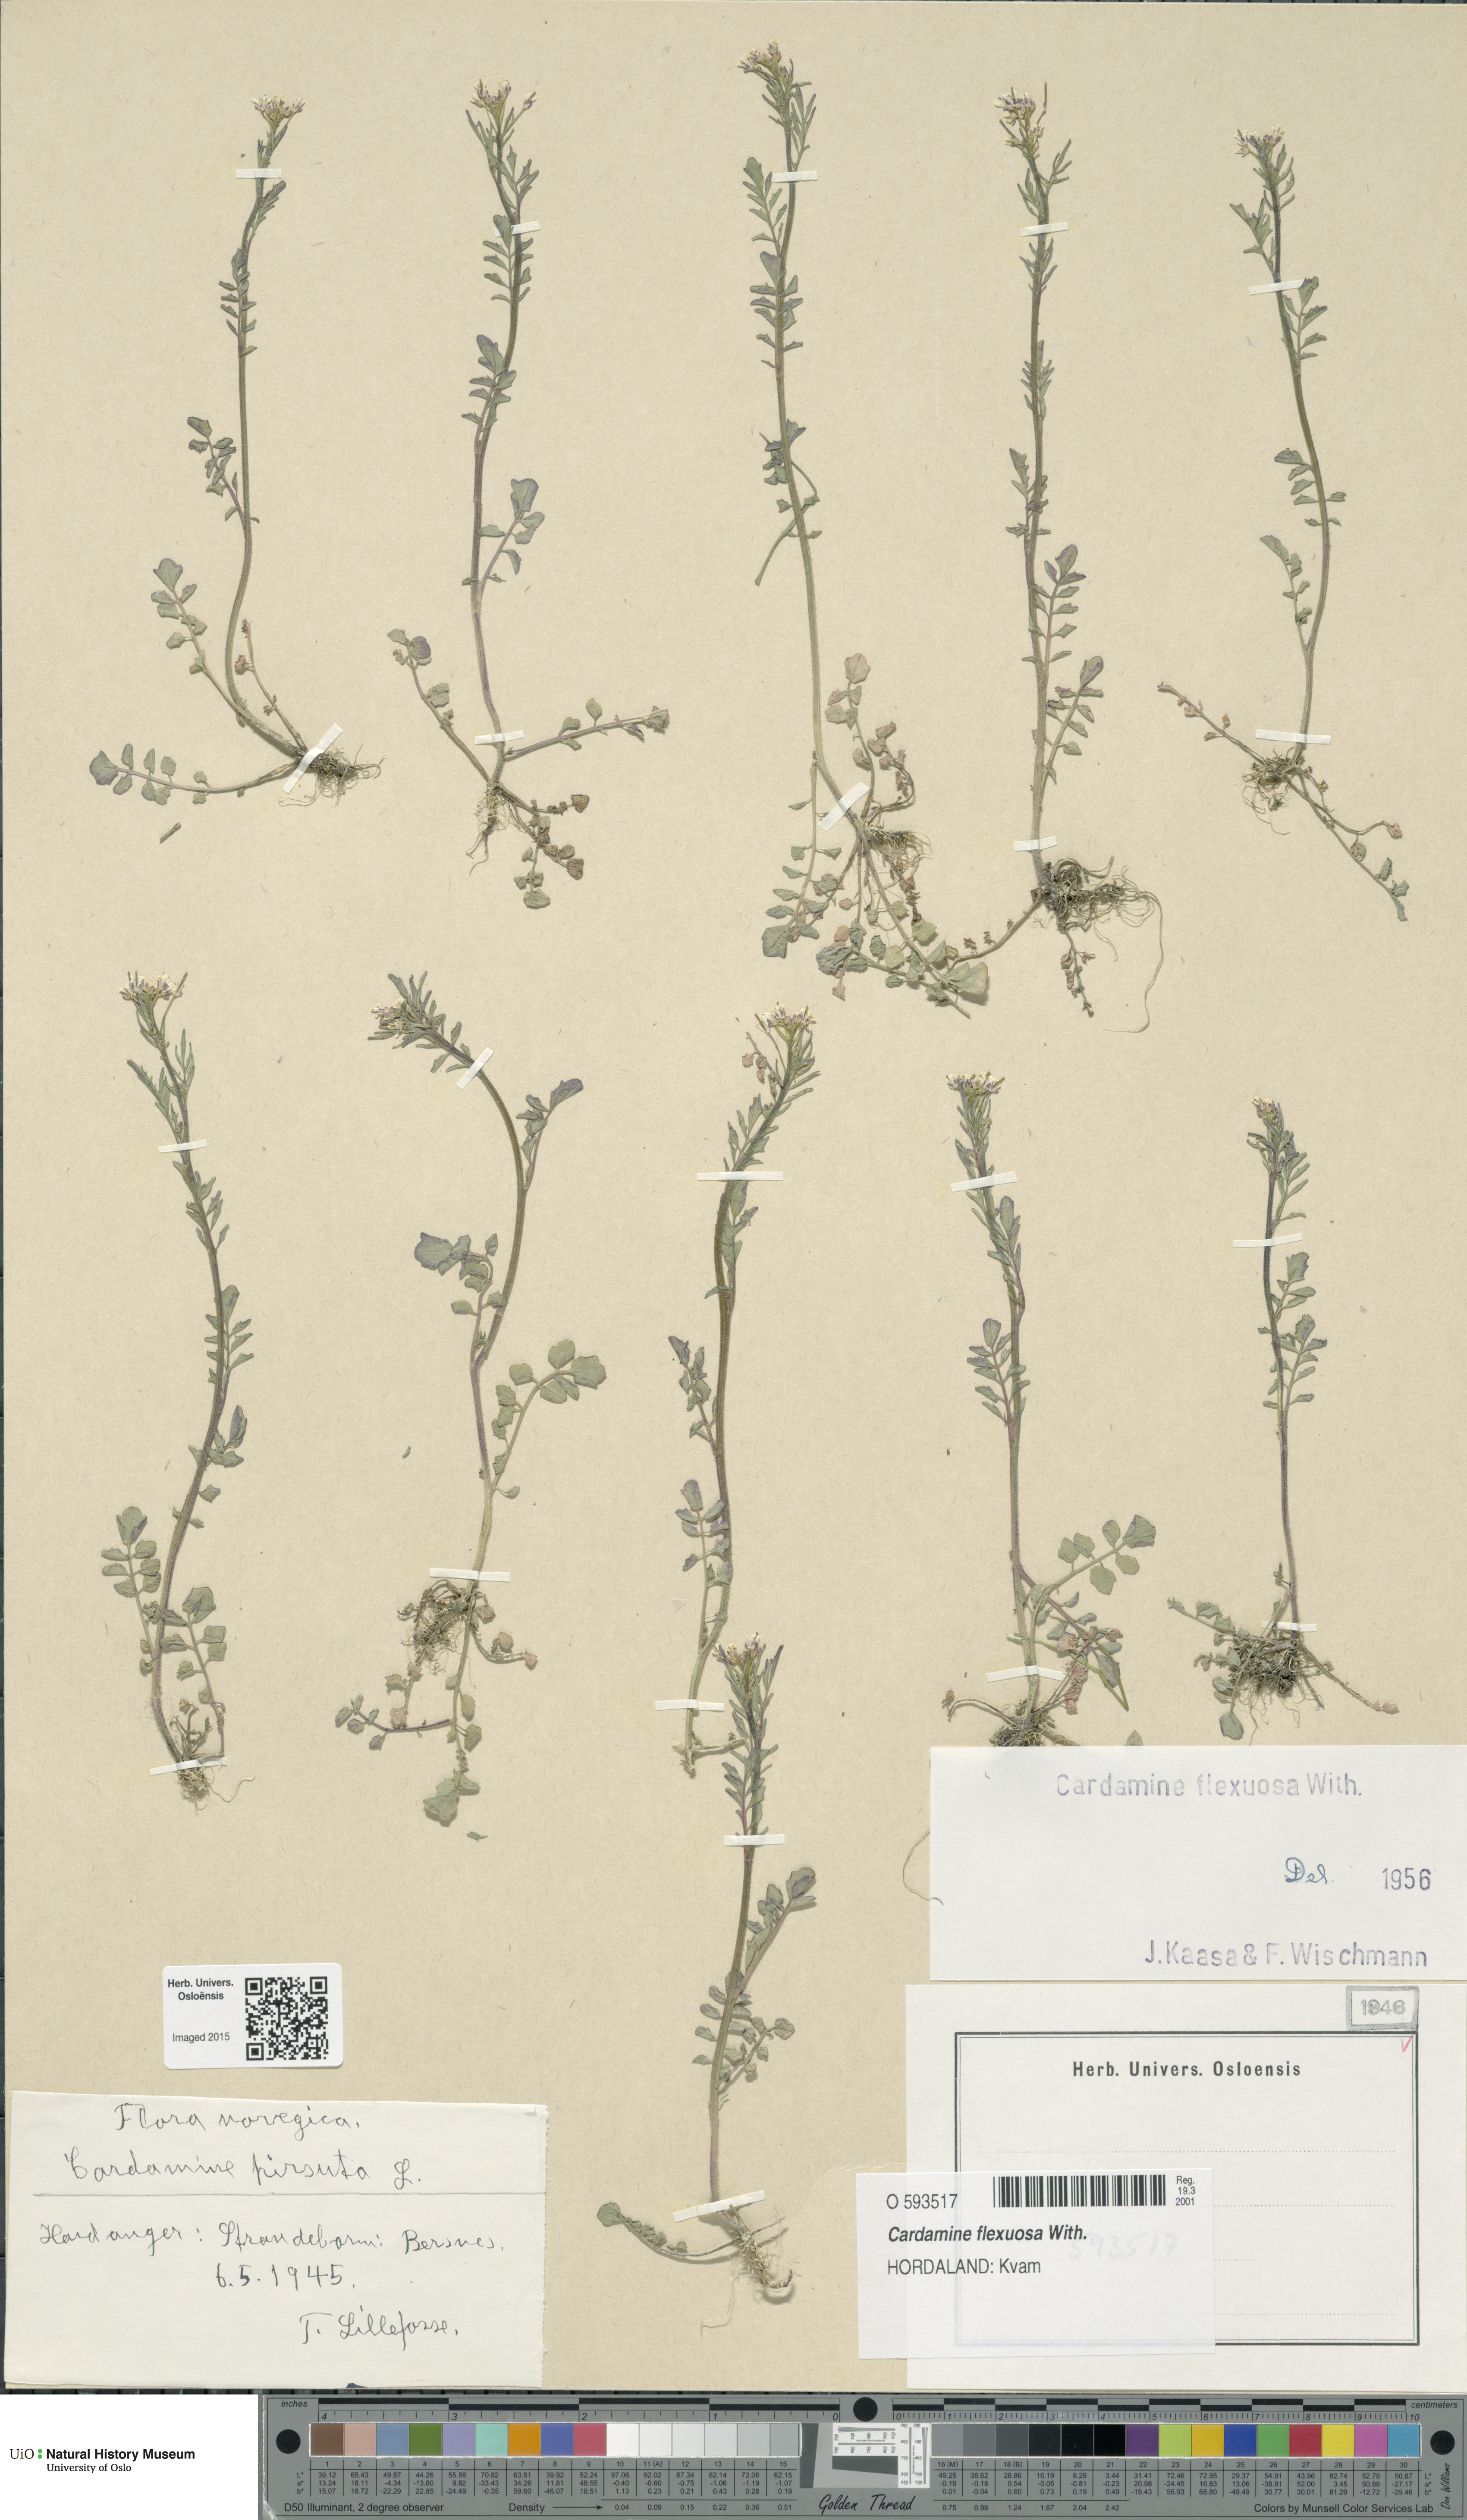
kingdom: Plantae
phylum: Tracheophyta
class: Magnoliopsida
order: Brassicales
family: Brassicaceae
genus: Cardamine
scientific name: Cardamine flexuosa
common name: Woodland bittercress
